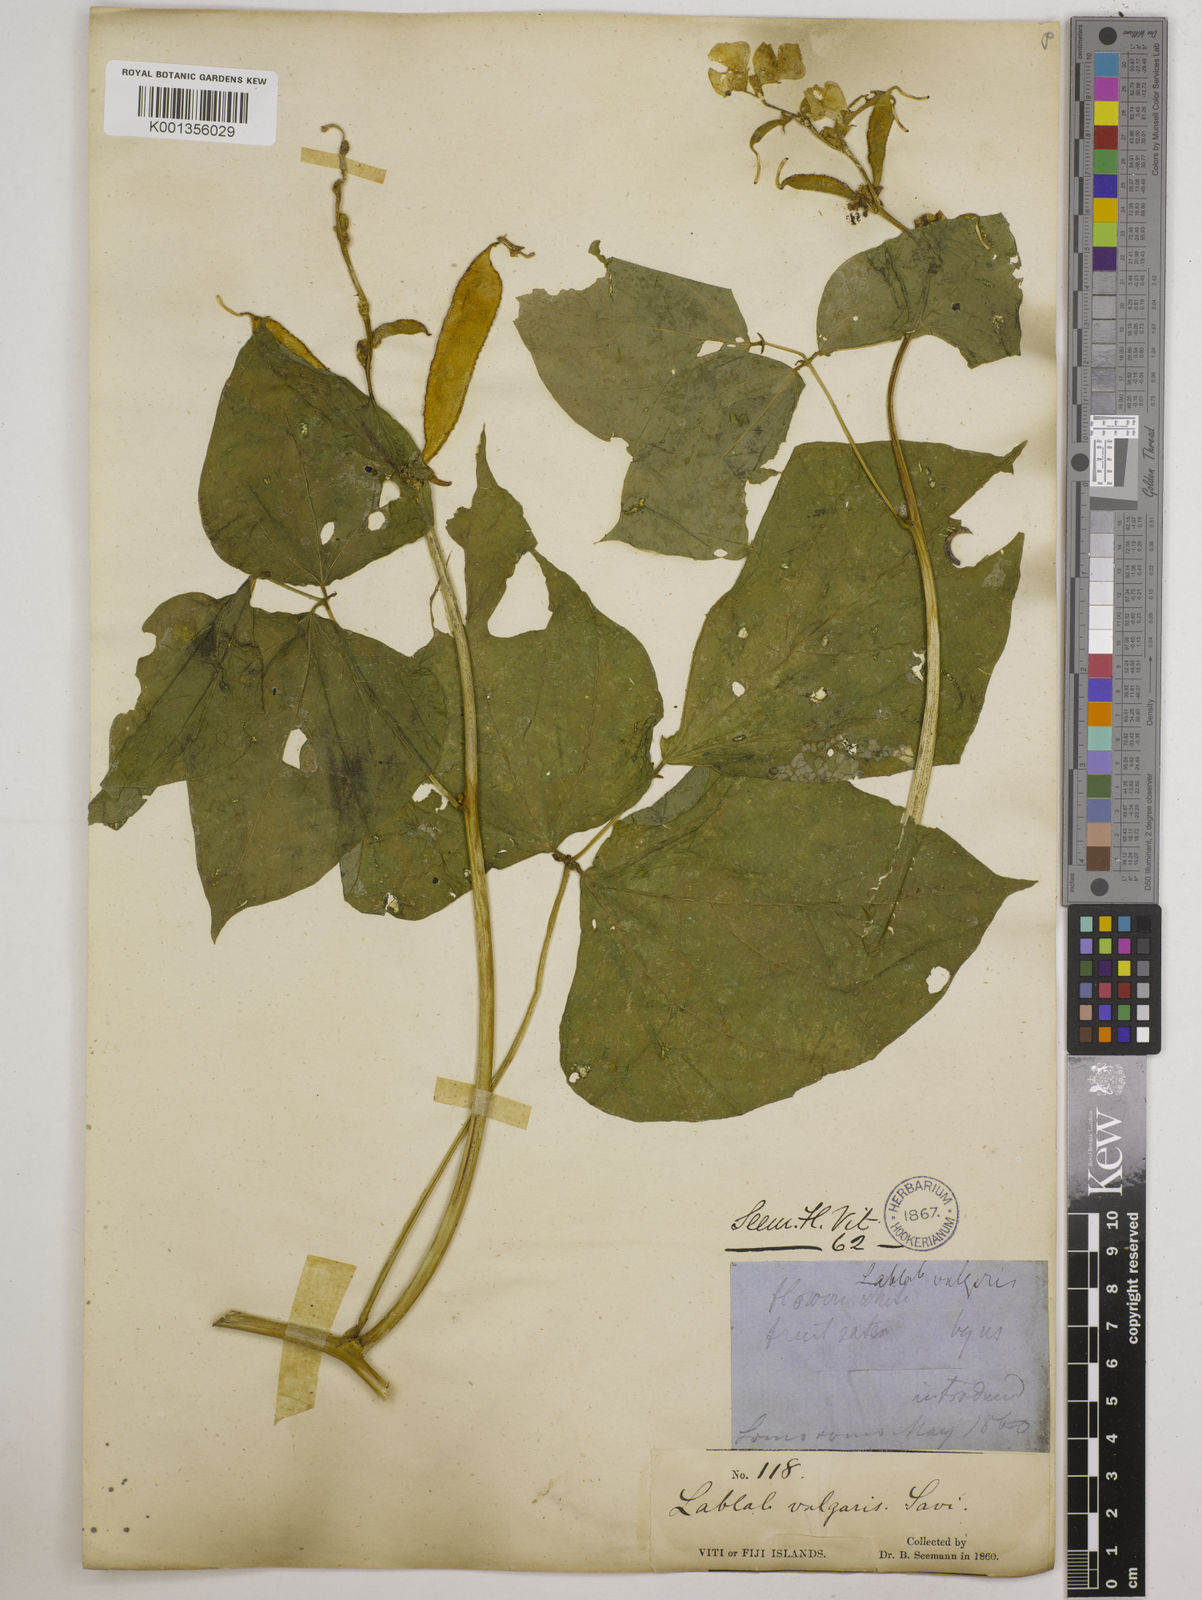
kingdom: Plantae
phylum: Tracheophyta
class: Magnoliopsida
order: Fabales
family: Fabaceae
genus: Lablab
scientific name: Lablab purpureus
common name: Lablab-bean
